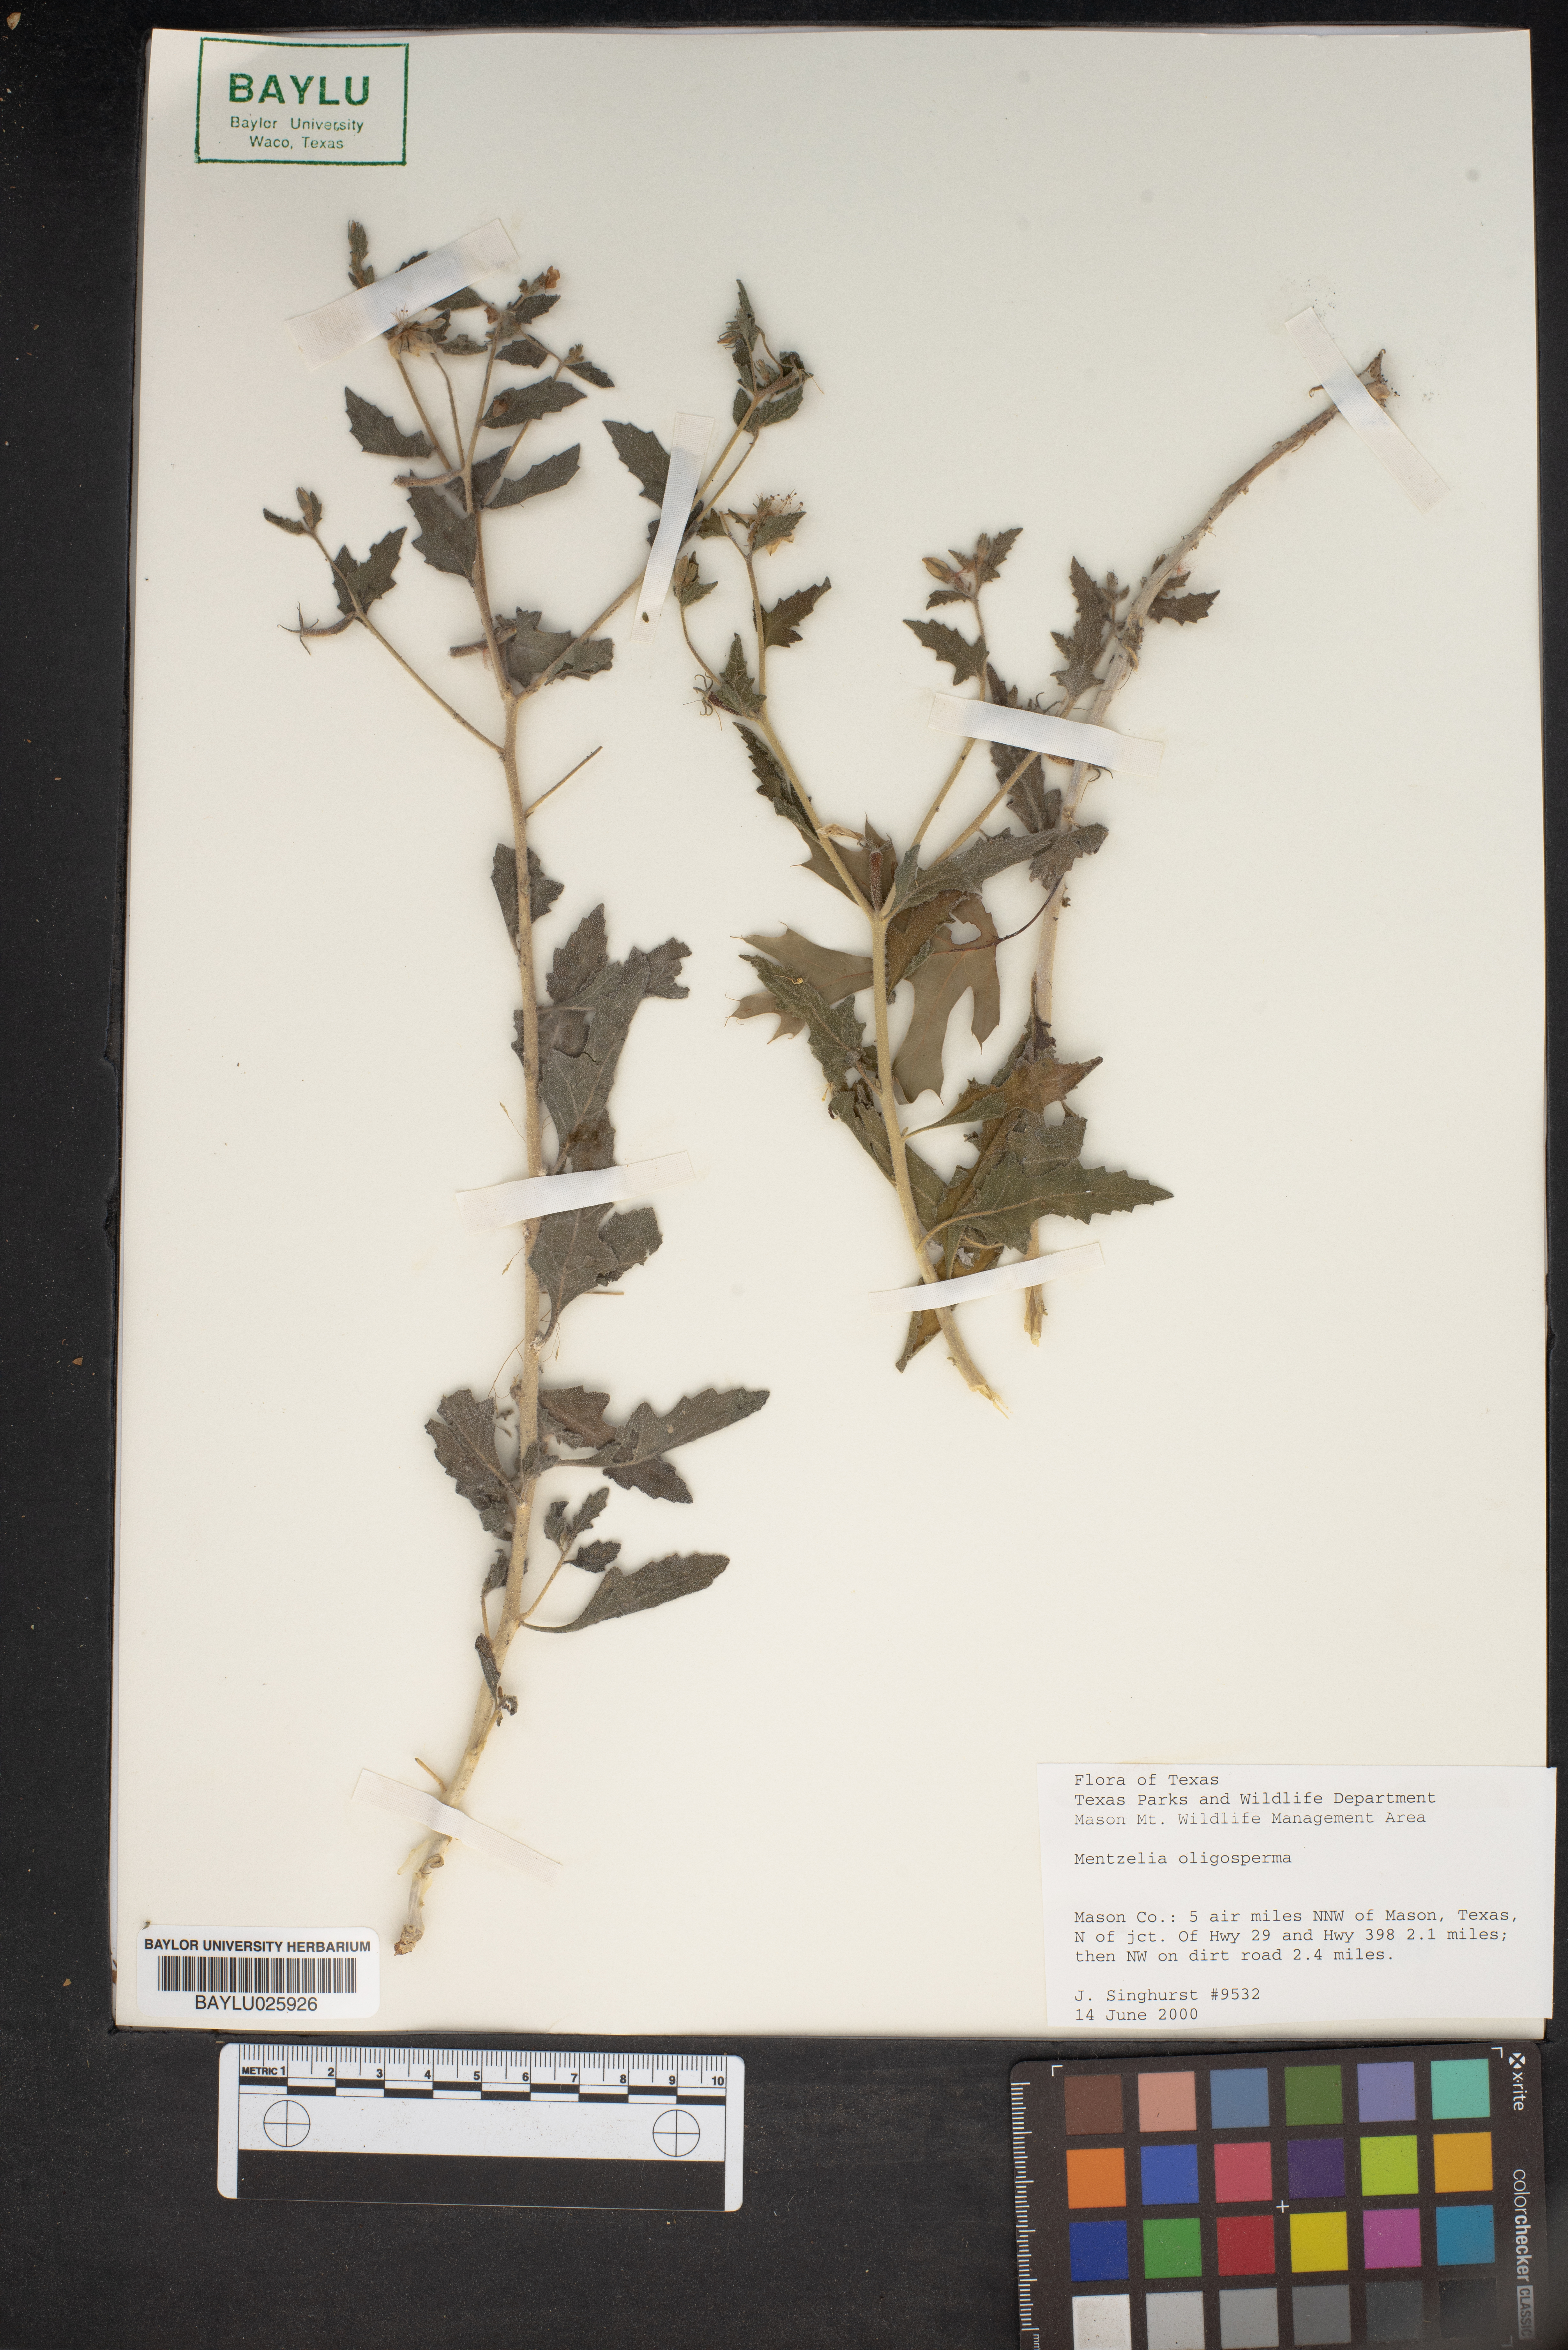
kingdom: Plantae
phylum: Tracheophyta
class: Magnoliopsida
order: Cornales
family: Loasaceae
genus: Mentzelia
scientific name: Mentzelia oligosperma
